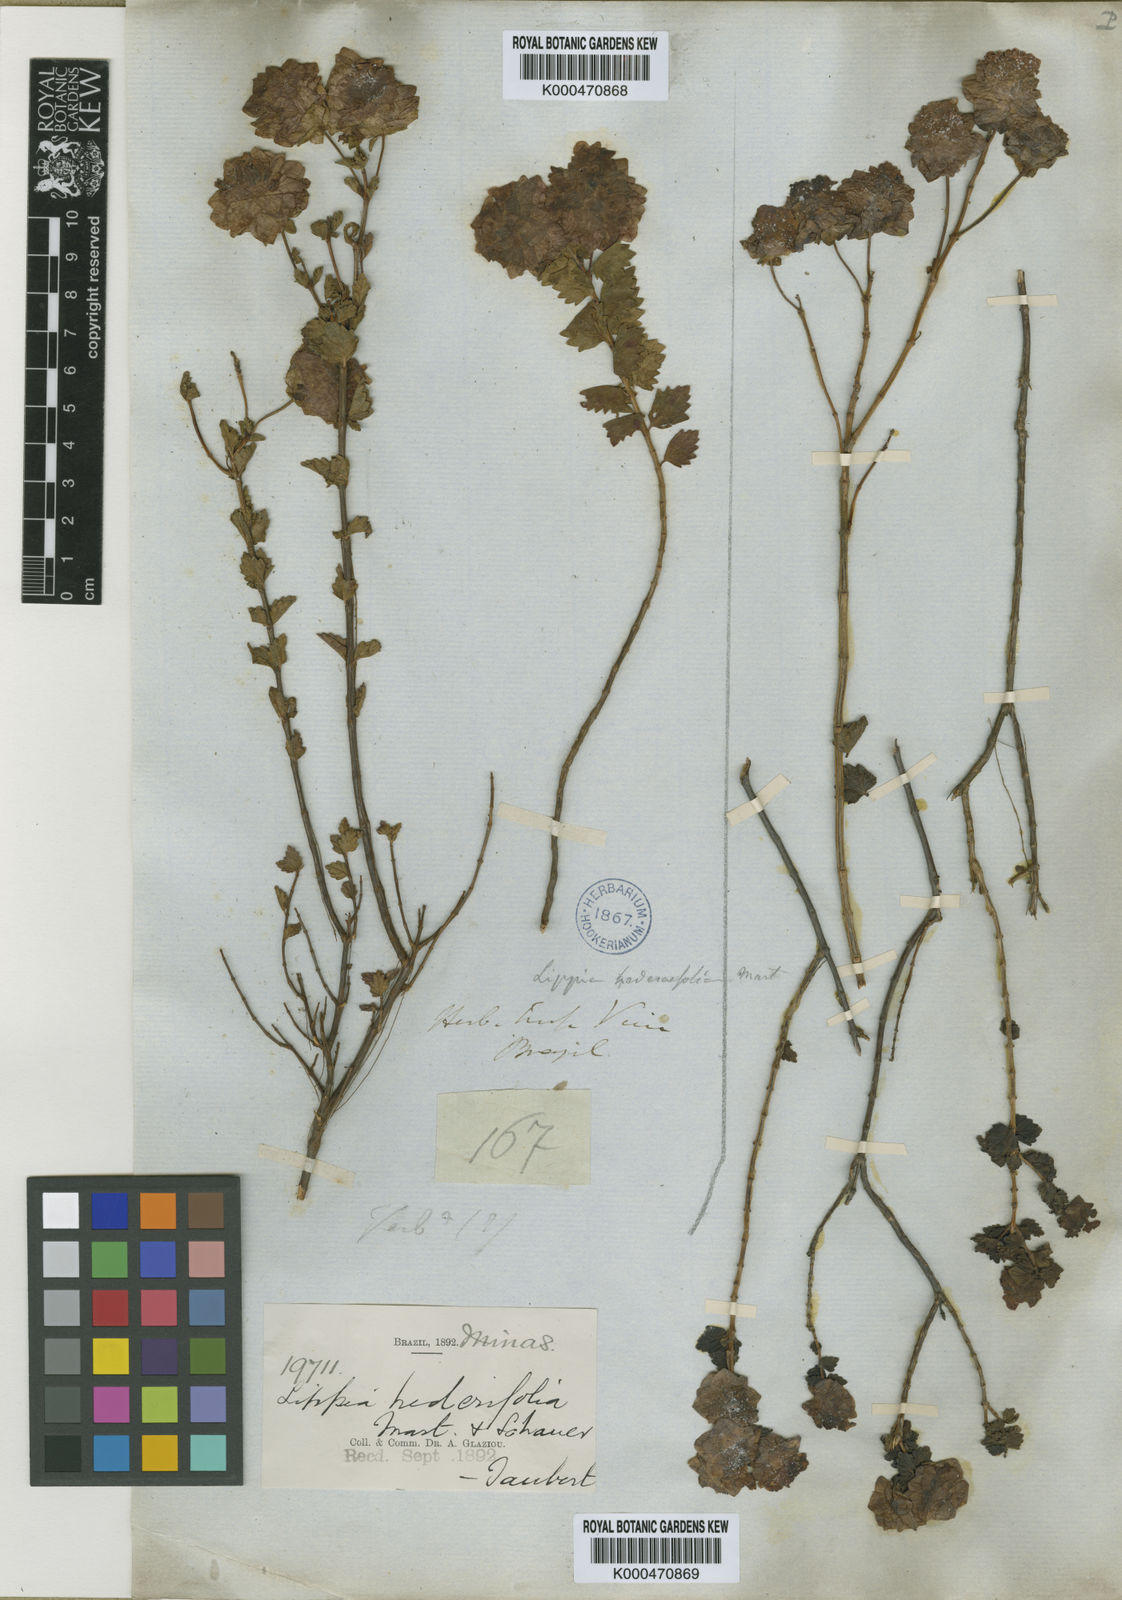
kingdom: Plantae
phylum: Tracheophyta
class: Magnoliopsida
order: Lamiales
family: Verbenaceae
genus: Lippia
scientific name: Lippia hederifolia
